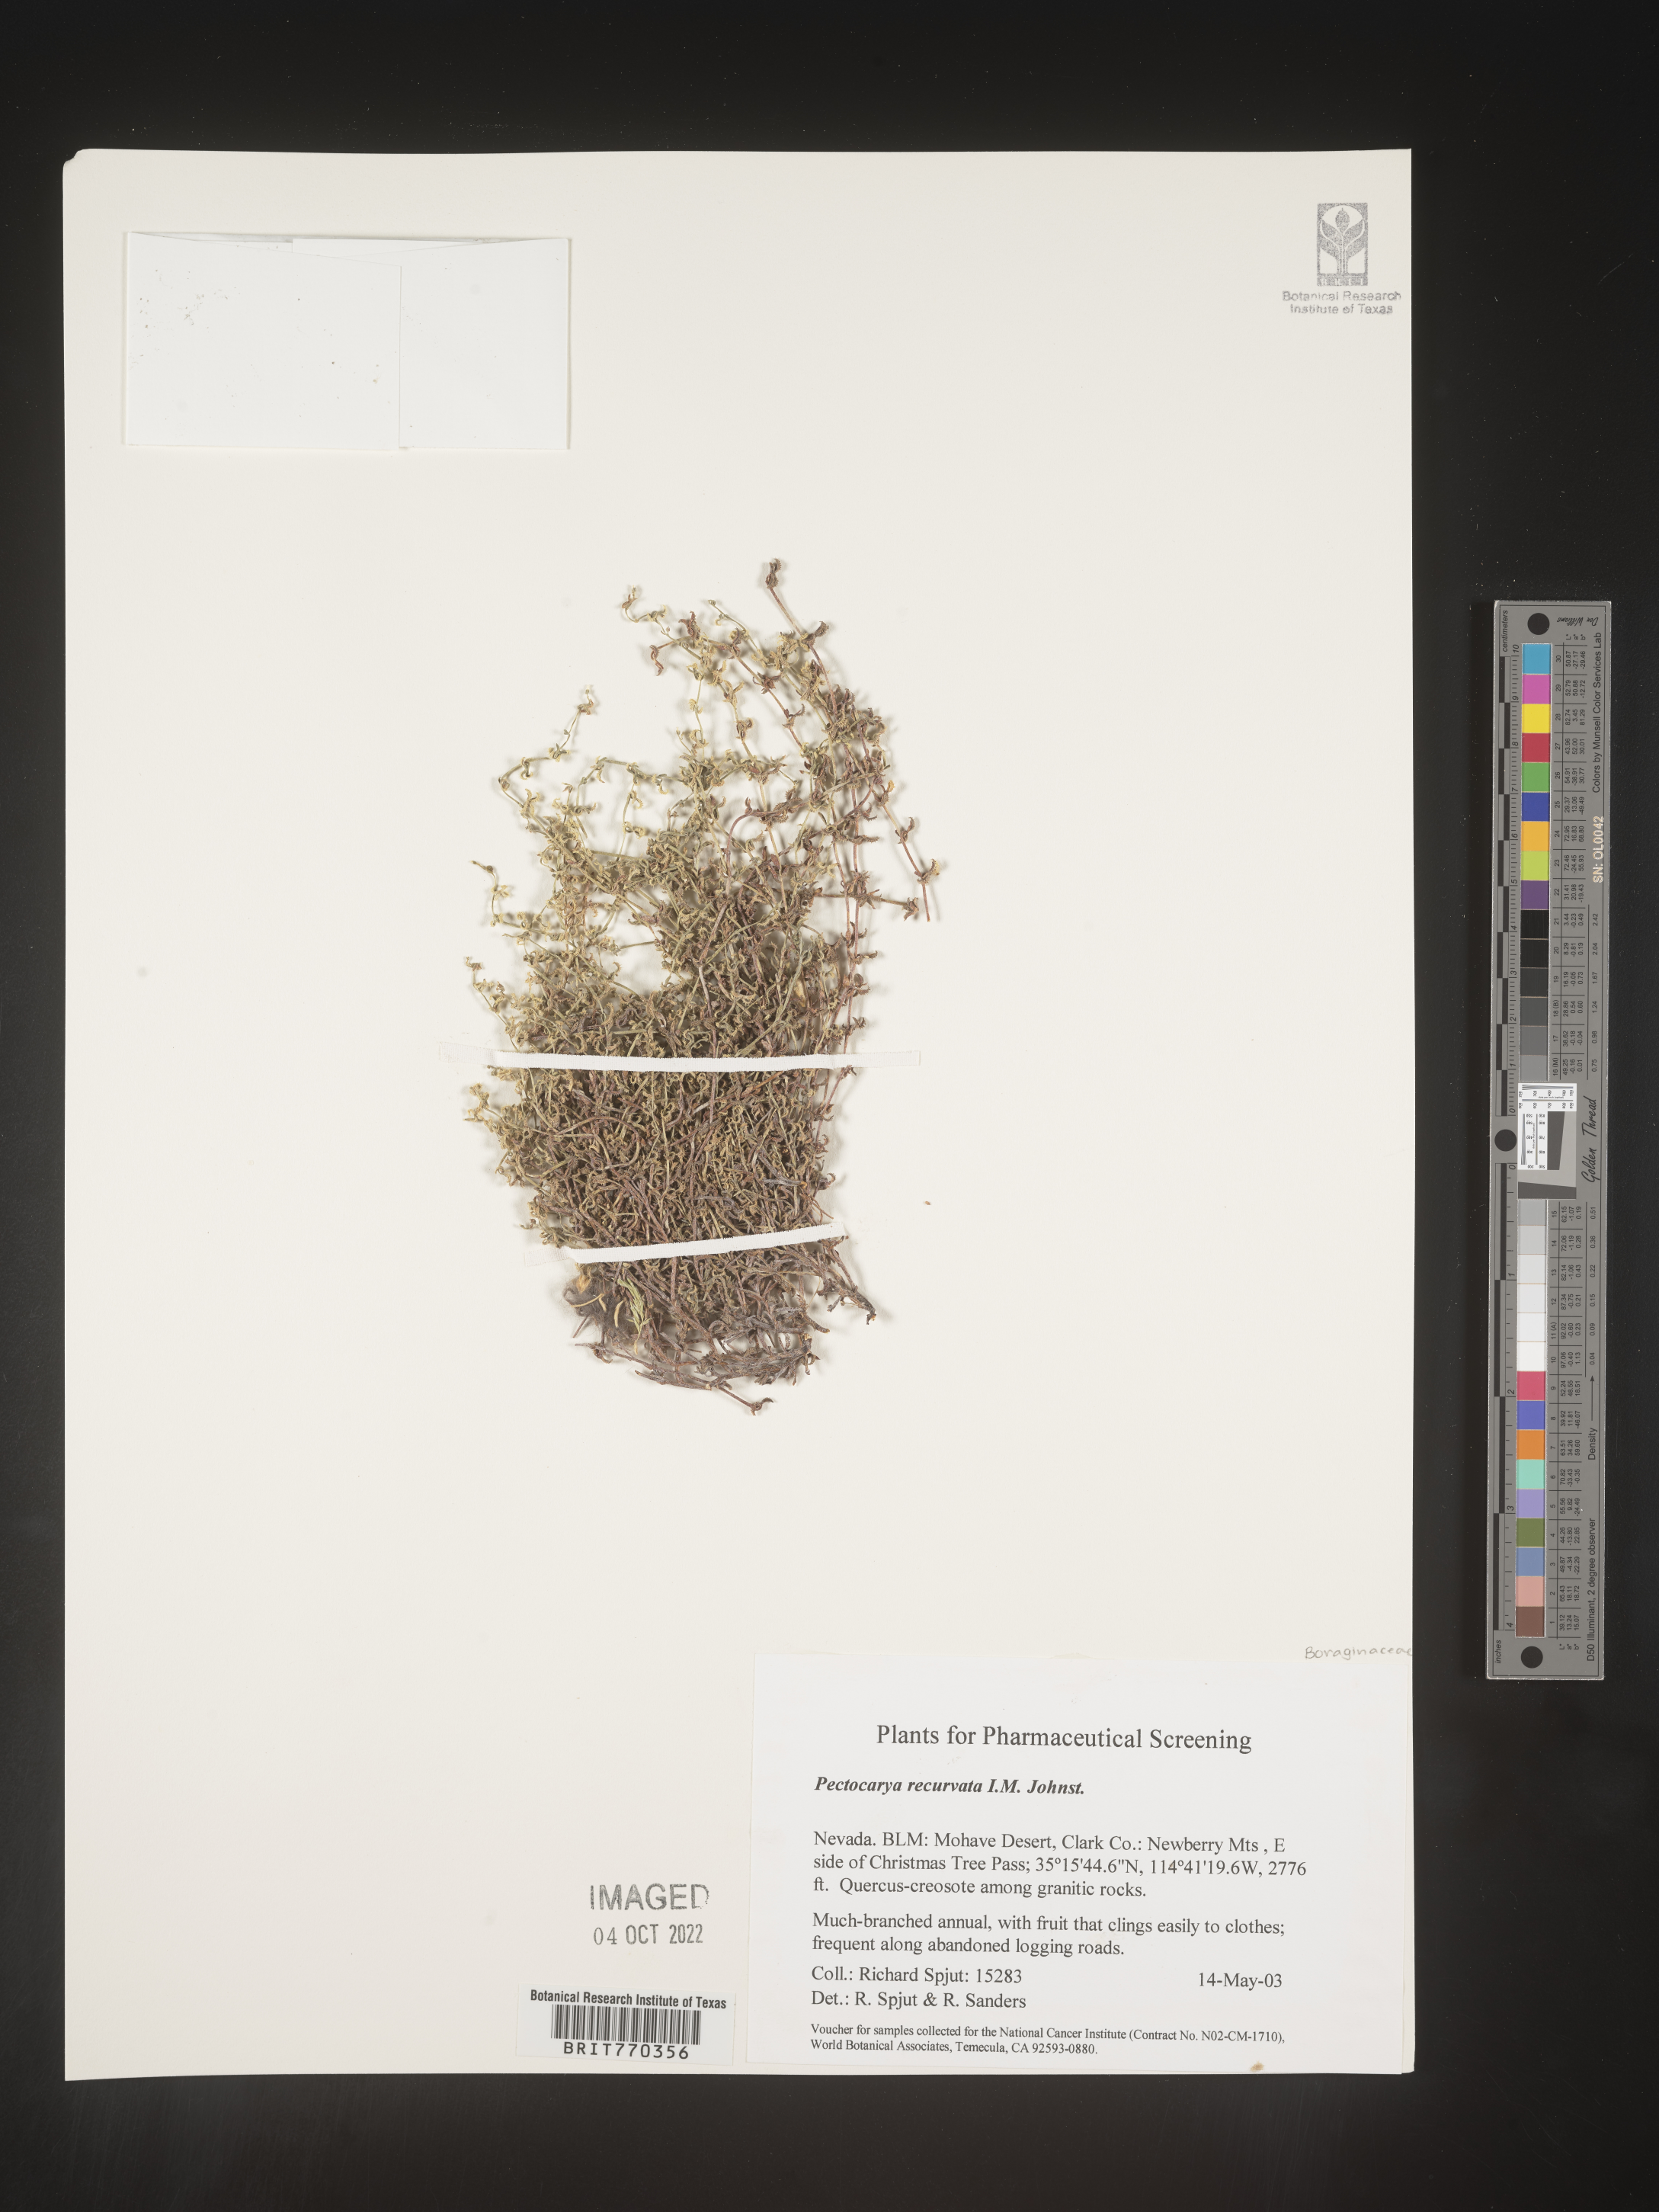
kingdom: Plantae
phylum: Tracheophyta
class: Magnoliopsida
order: Boraginales
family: Boraginaceae
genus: Pectocarya
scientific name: Pectocarya
